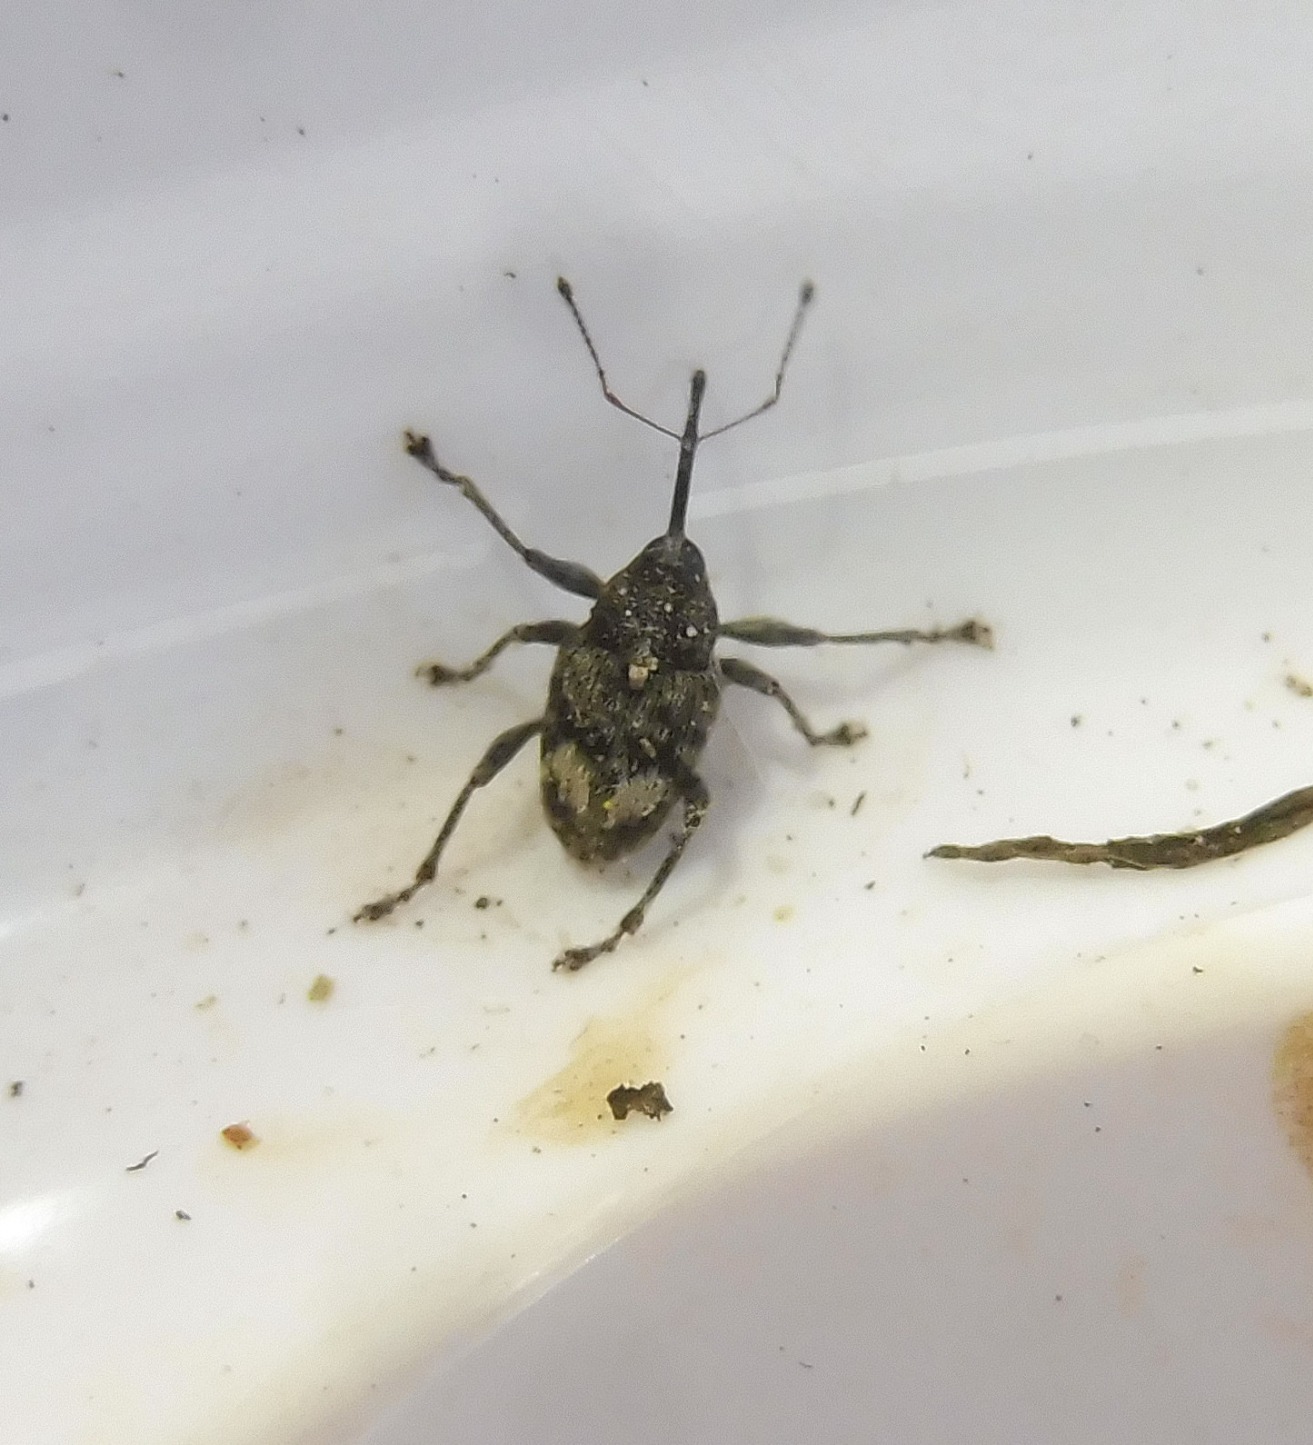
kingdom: Animalia
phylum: Arthropoda
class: Insecta
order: Coleoptera
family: Curculionidae
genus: Curculio
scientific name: Curculio villosus
